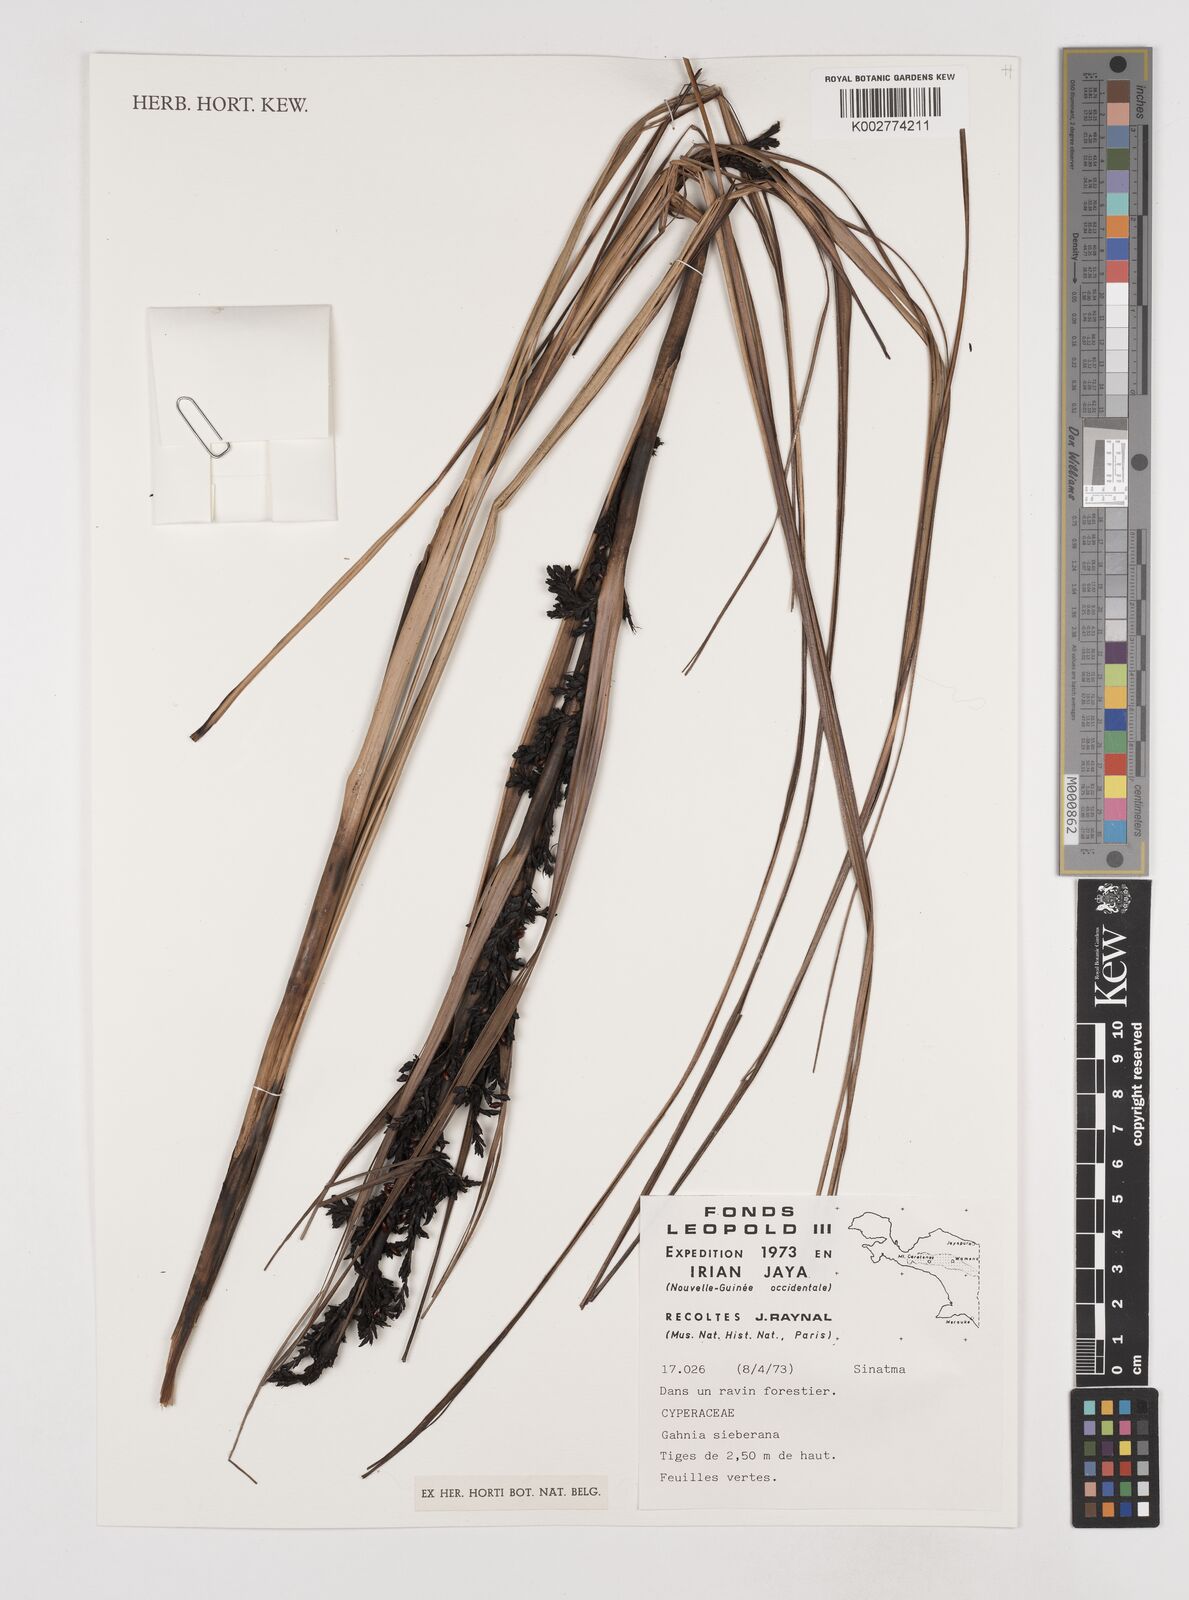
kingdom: Plantae
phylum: Tracheophyta
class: Liliopsida
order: Poales
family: Cyperaceae
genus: Gahnia
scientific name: Gahnia sieberiana
